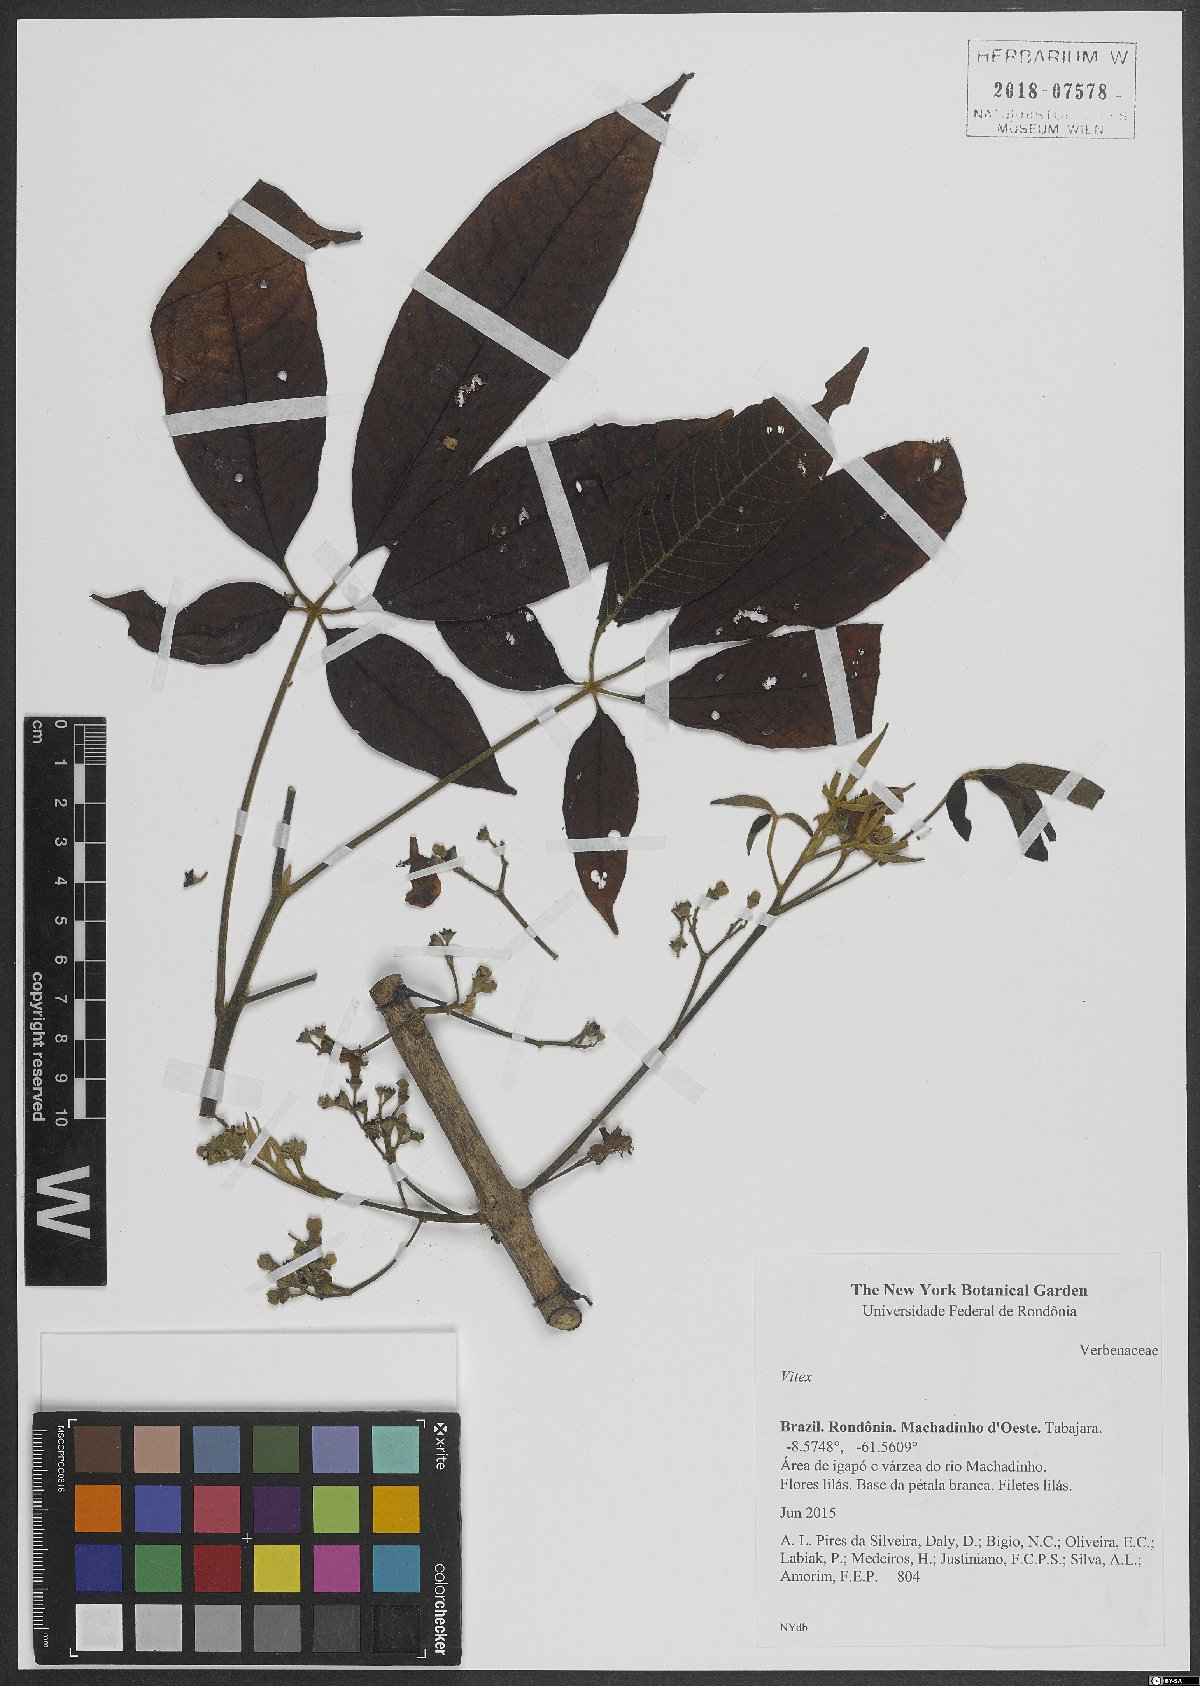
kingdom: Plantae
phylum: Tracheophyta
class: Magnoliopsida
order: Lamiales
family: Lamiaceae
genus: Vitex
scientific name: Vitex
